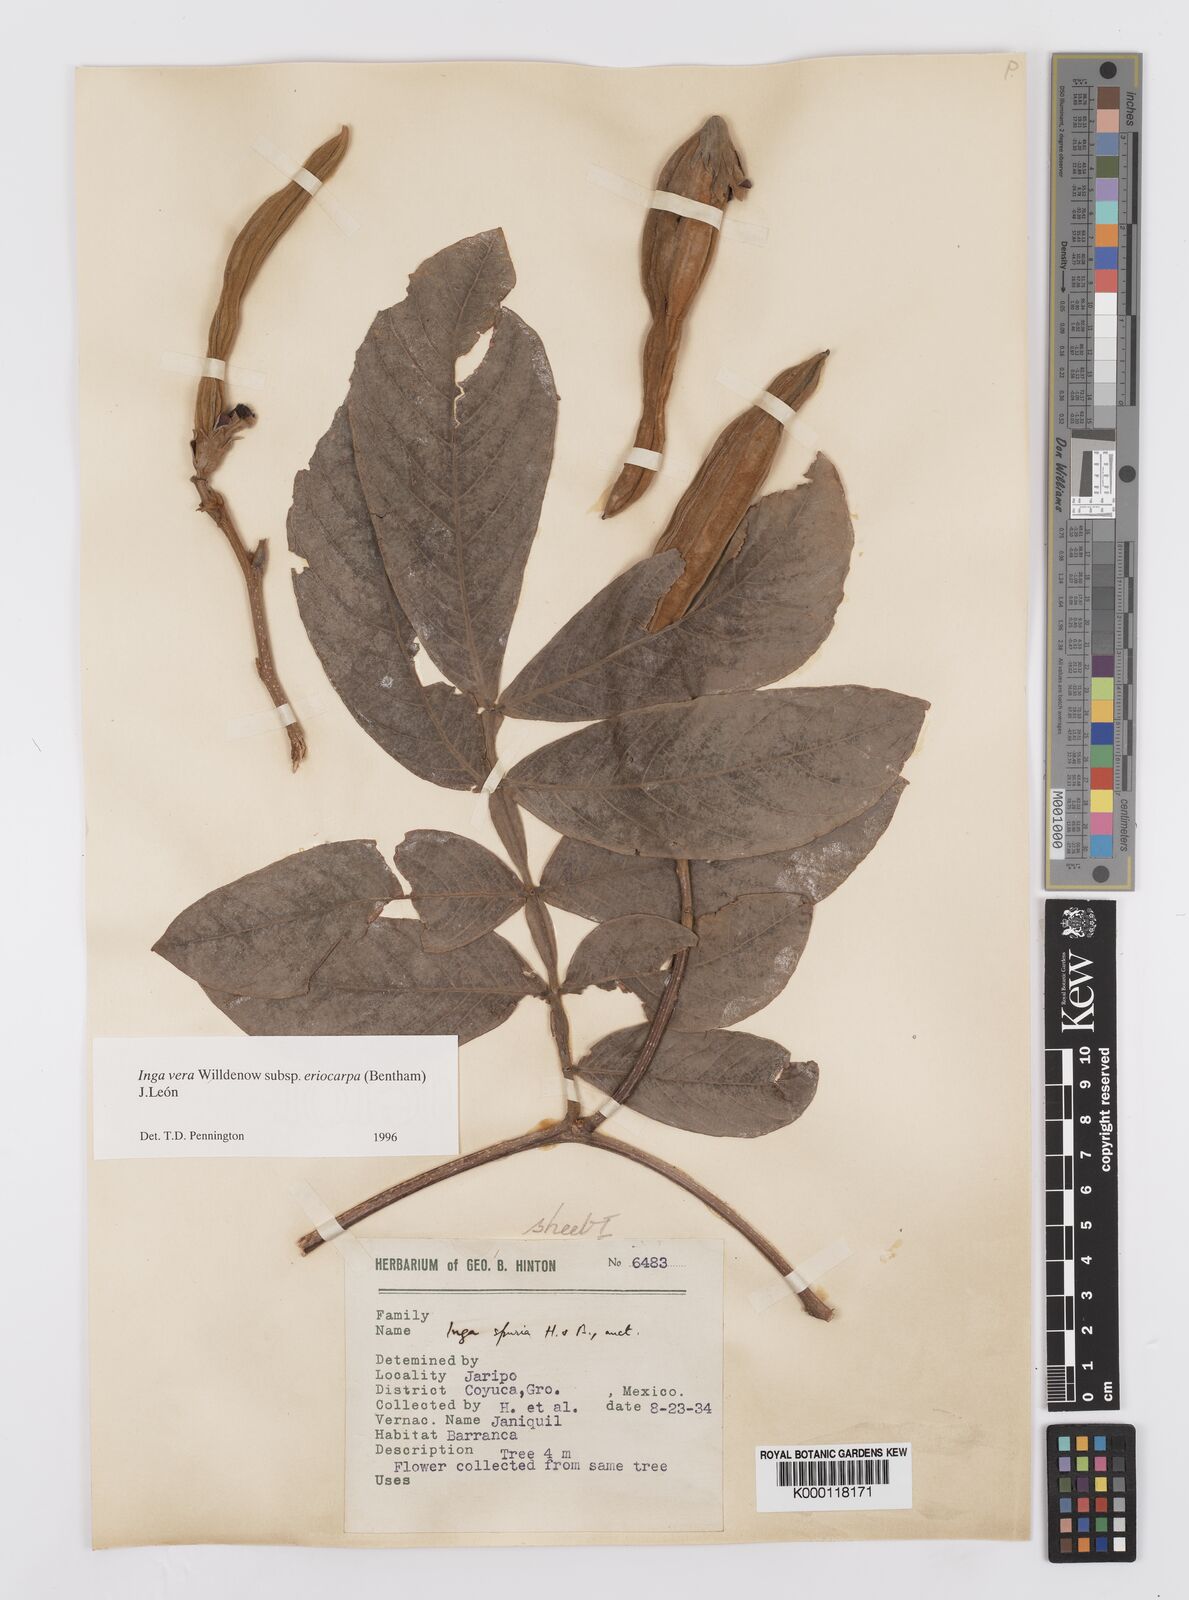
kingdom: Plantae
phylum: Tracheophyta
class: Magnoliopsida
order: Fabales
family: Fabaceae
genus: Inga
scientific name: Inga vera
